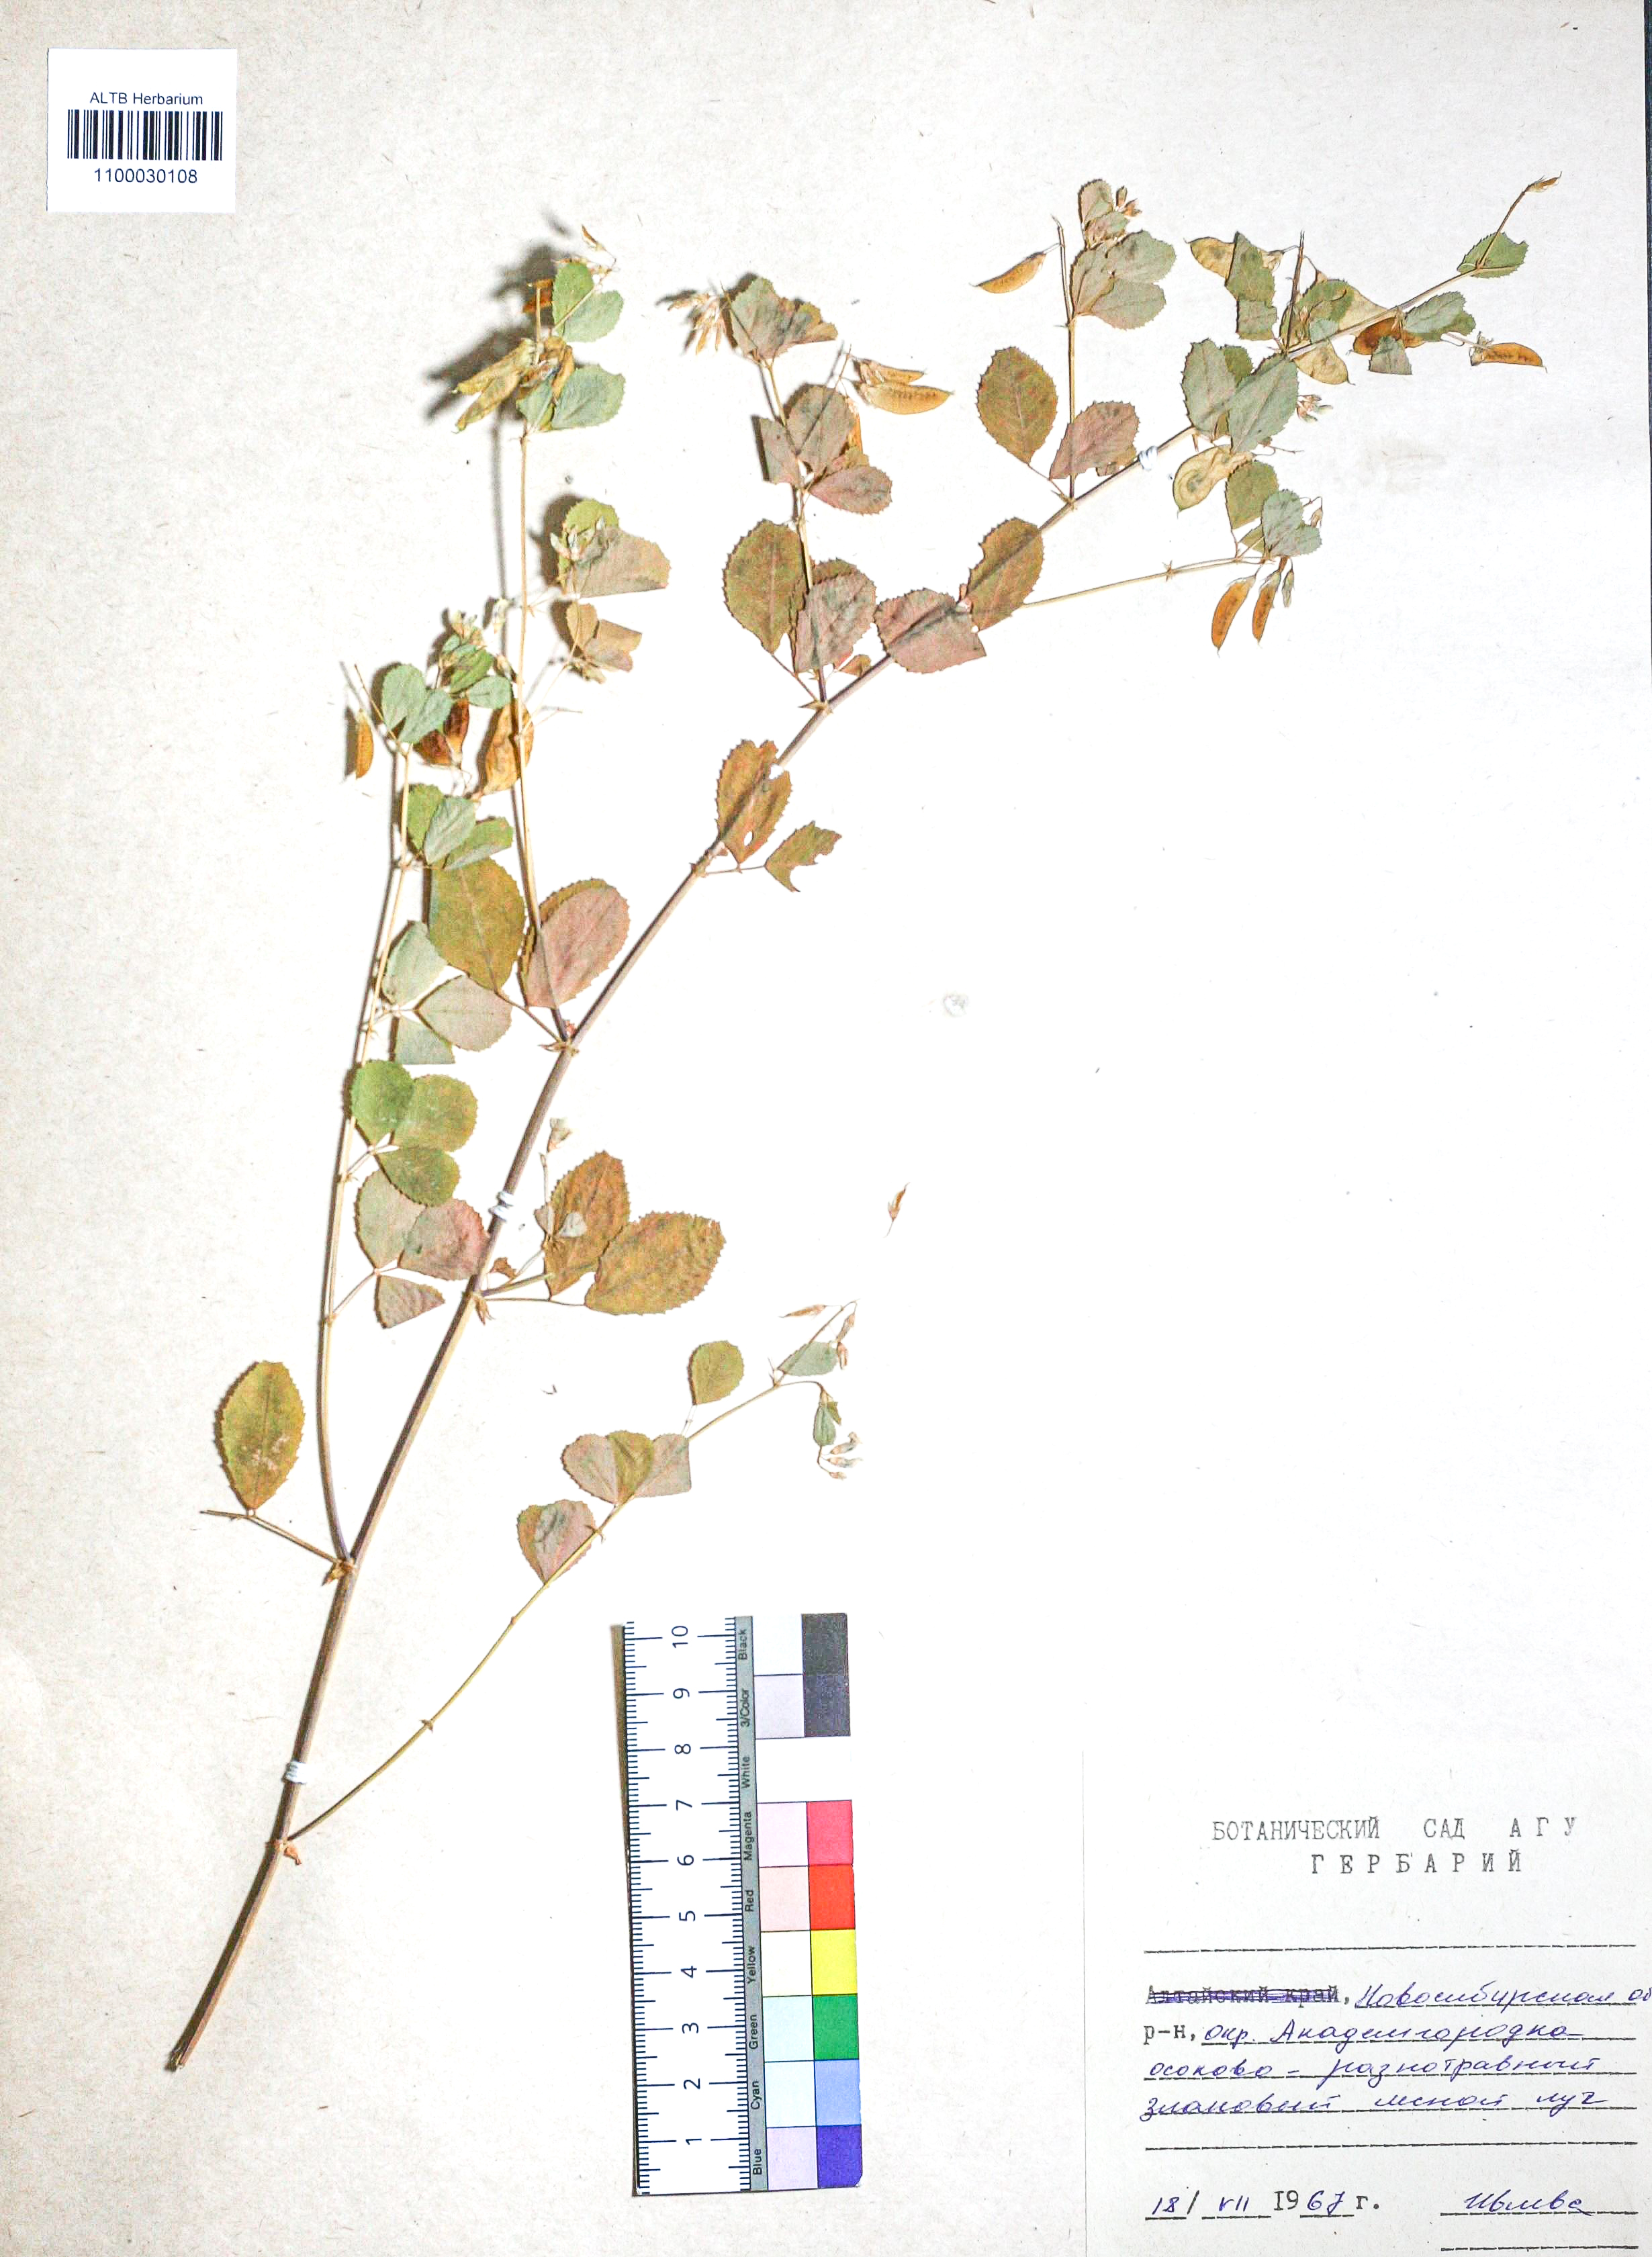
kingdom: Plantae
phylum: Tracheophyta
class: Magnoliopsida
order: Fabales
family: Fabaceae
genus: Medicago
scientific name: Medicago platycarpos
